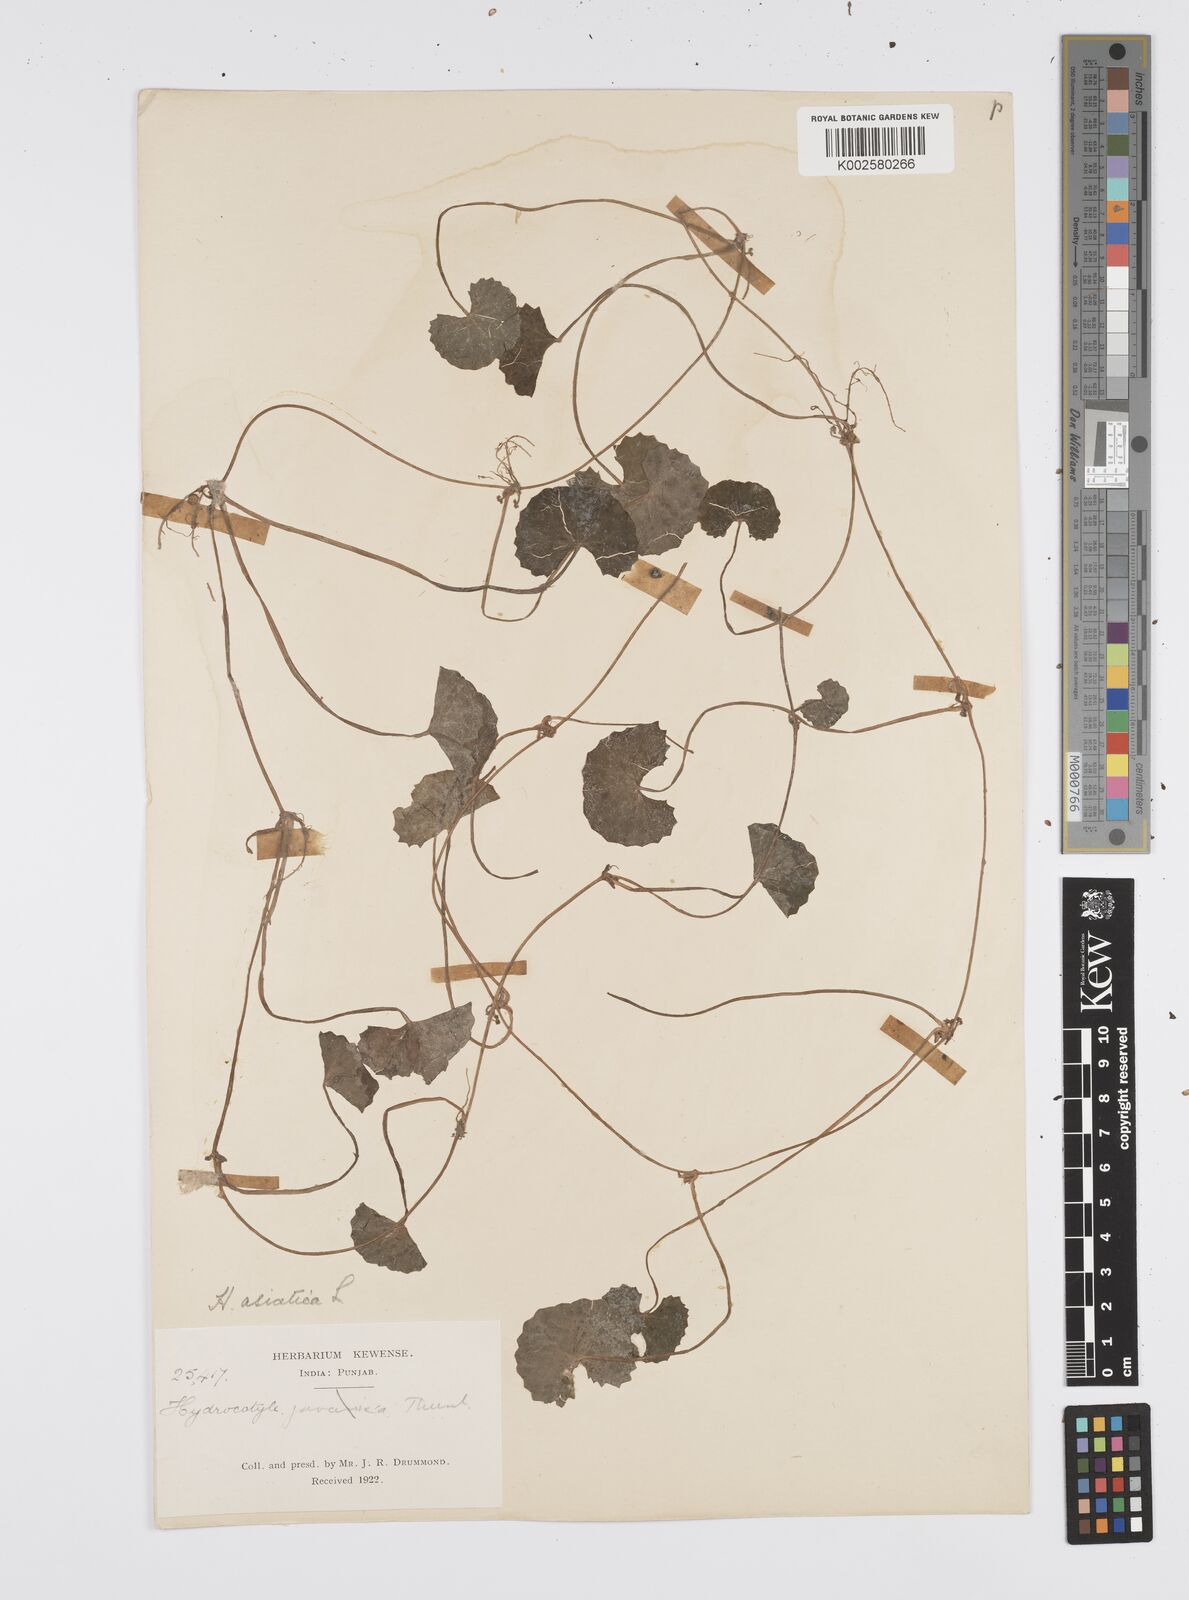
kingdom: Plantae
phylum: Tracheophyta
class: Magnoliopsida
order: Apiales
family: Apiaceae
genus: Centella
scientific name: Centella asiatica
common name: Spadeleaf
